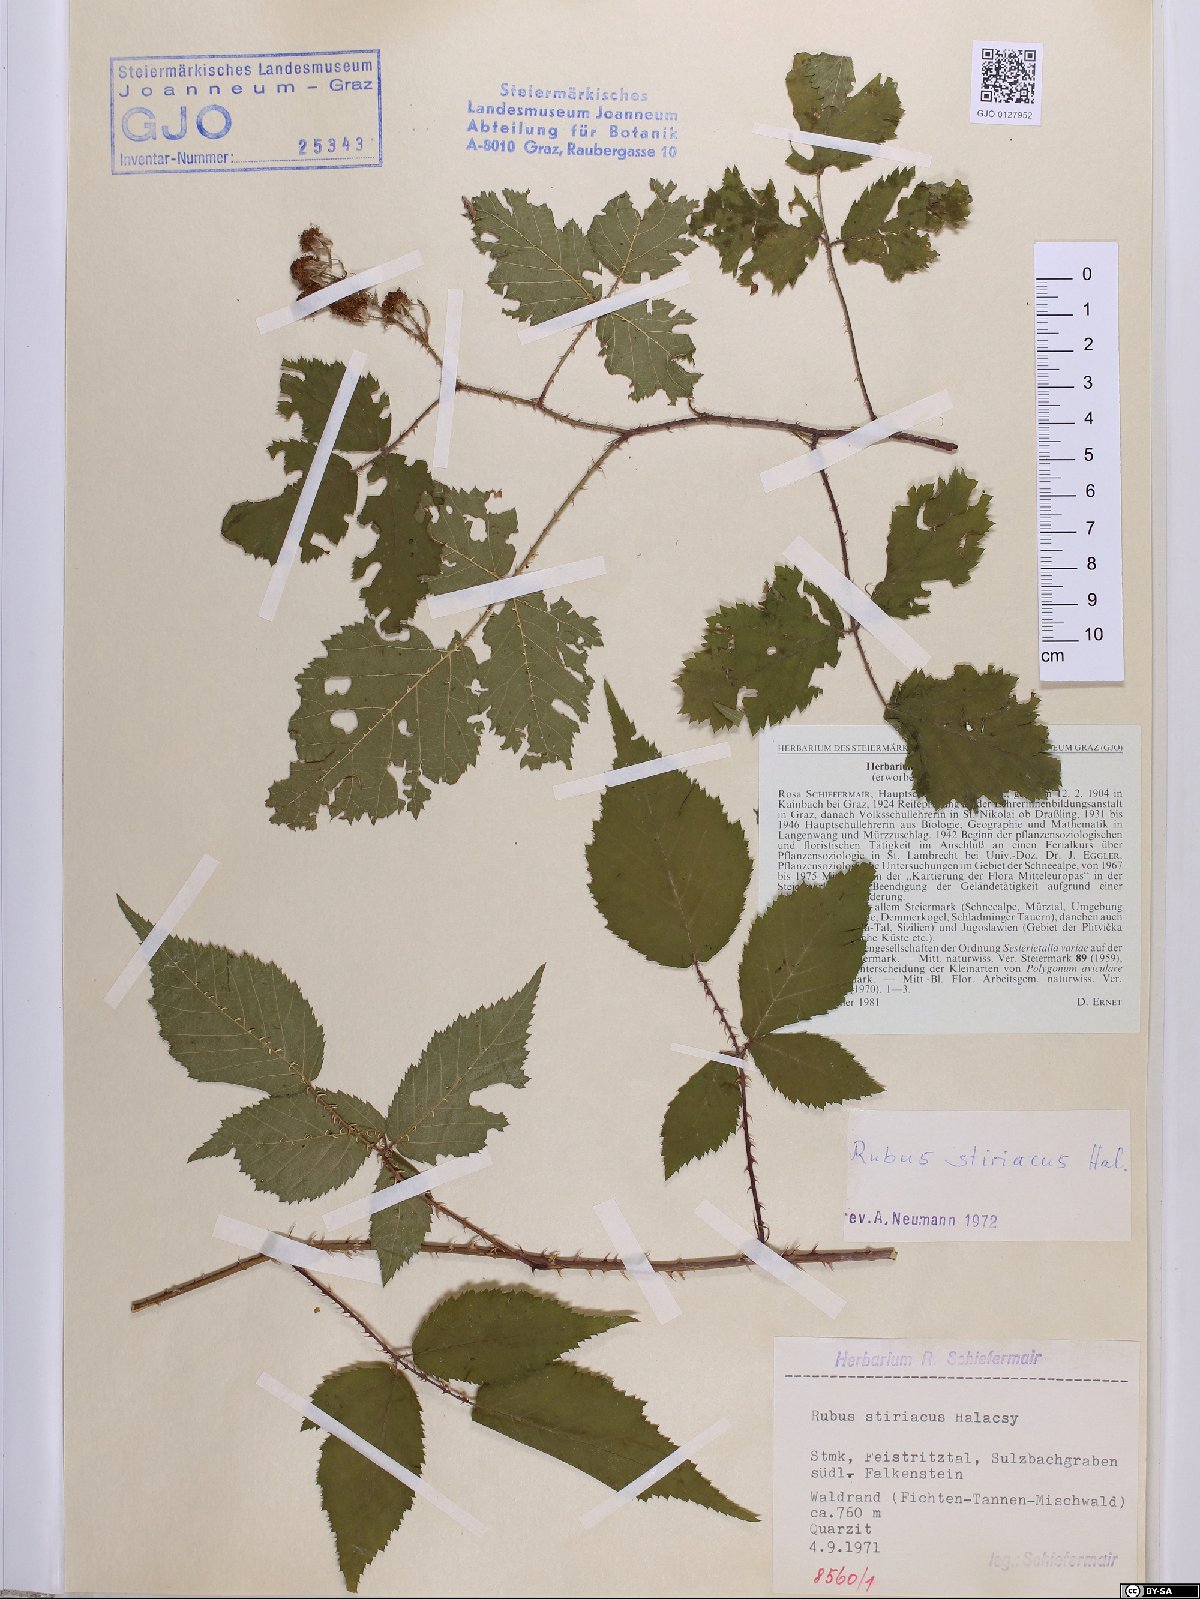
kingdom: Plantae
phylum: Tracheophyta
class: Magnoliopsida
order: Rosales
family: Rosaceae
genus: Rubus
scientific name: Rubus styriacus
